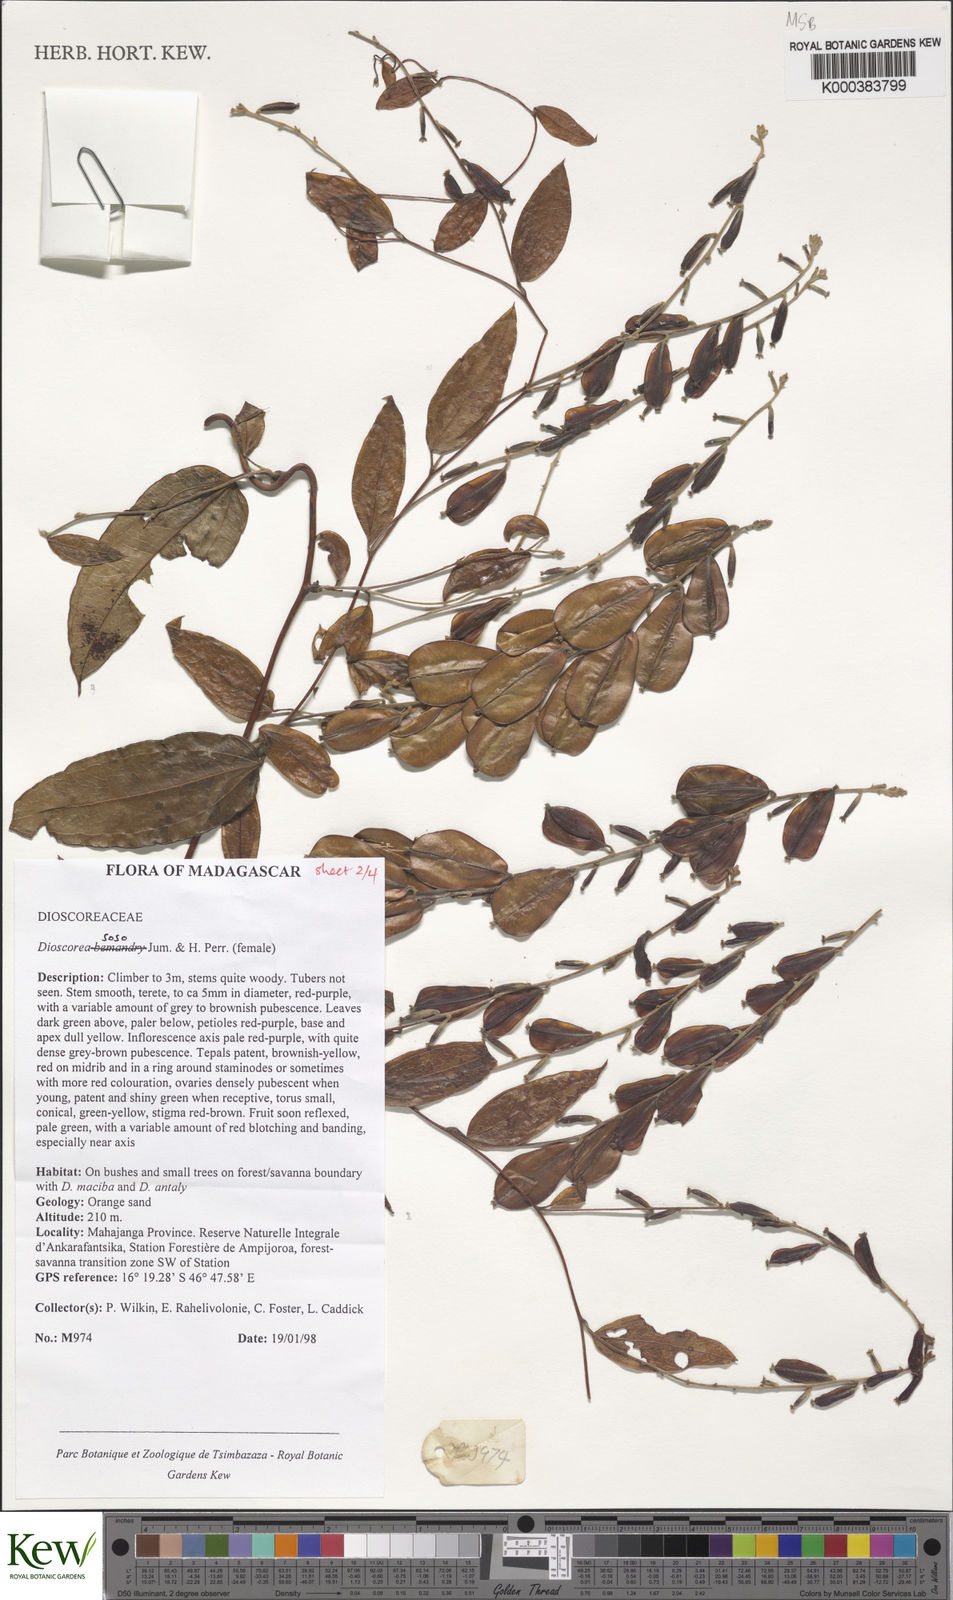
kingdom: Plantae
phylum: Tracheophyta
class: Liliopsida
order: Dioscoreales
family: Dioscoreaceae
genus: Dioscorea
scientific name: Dioscorea
